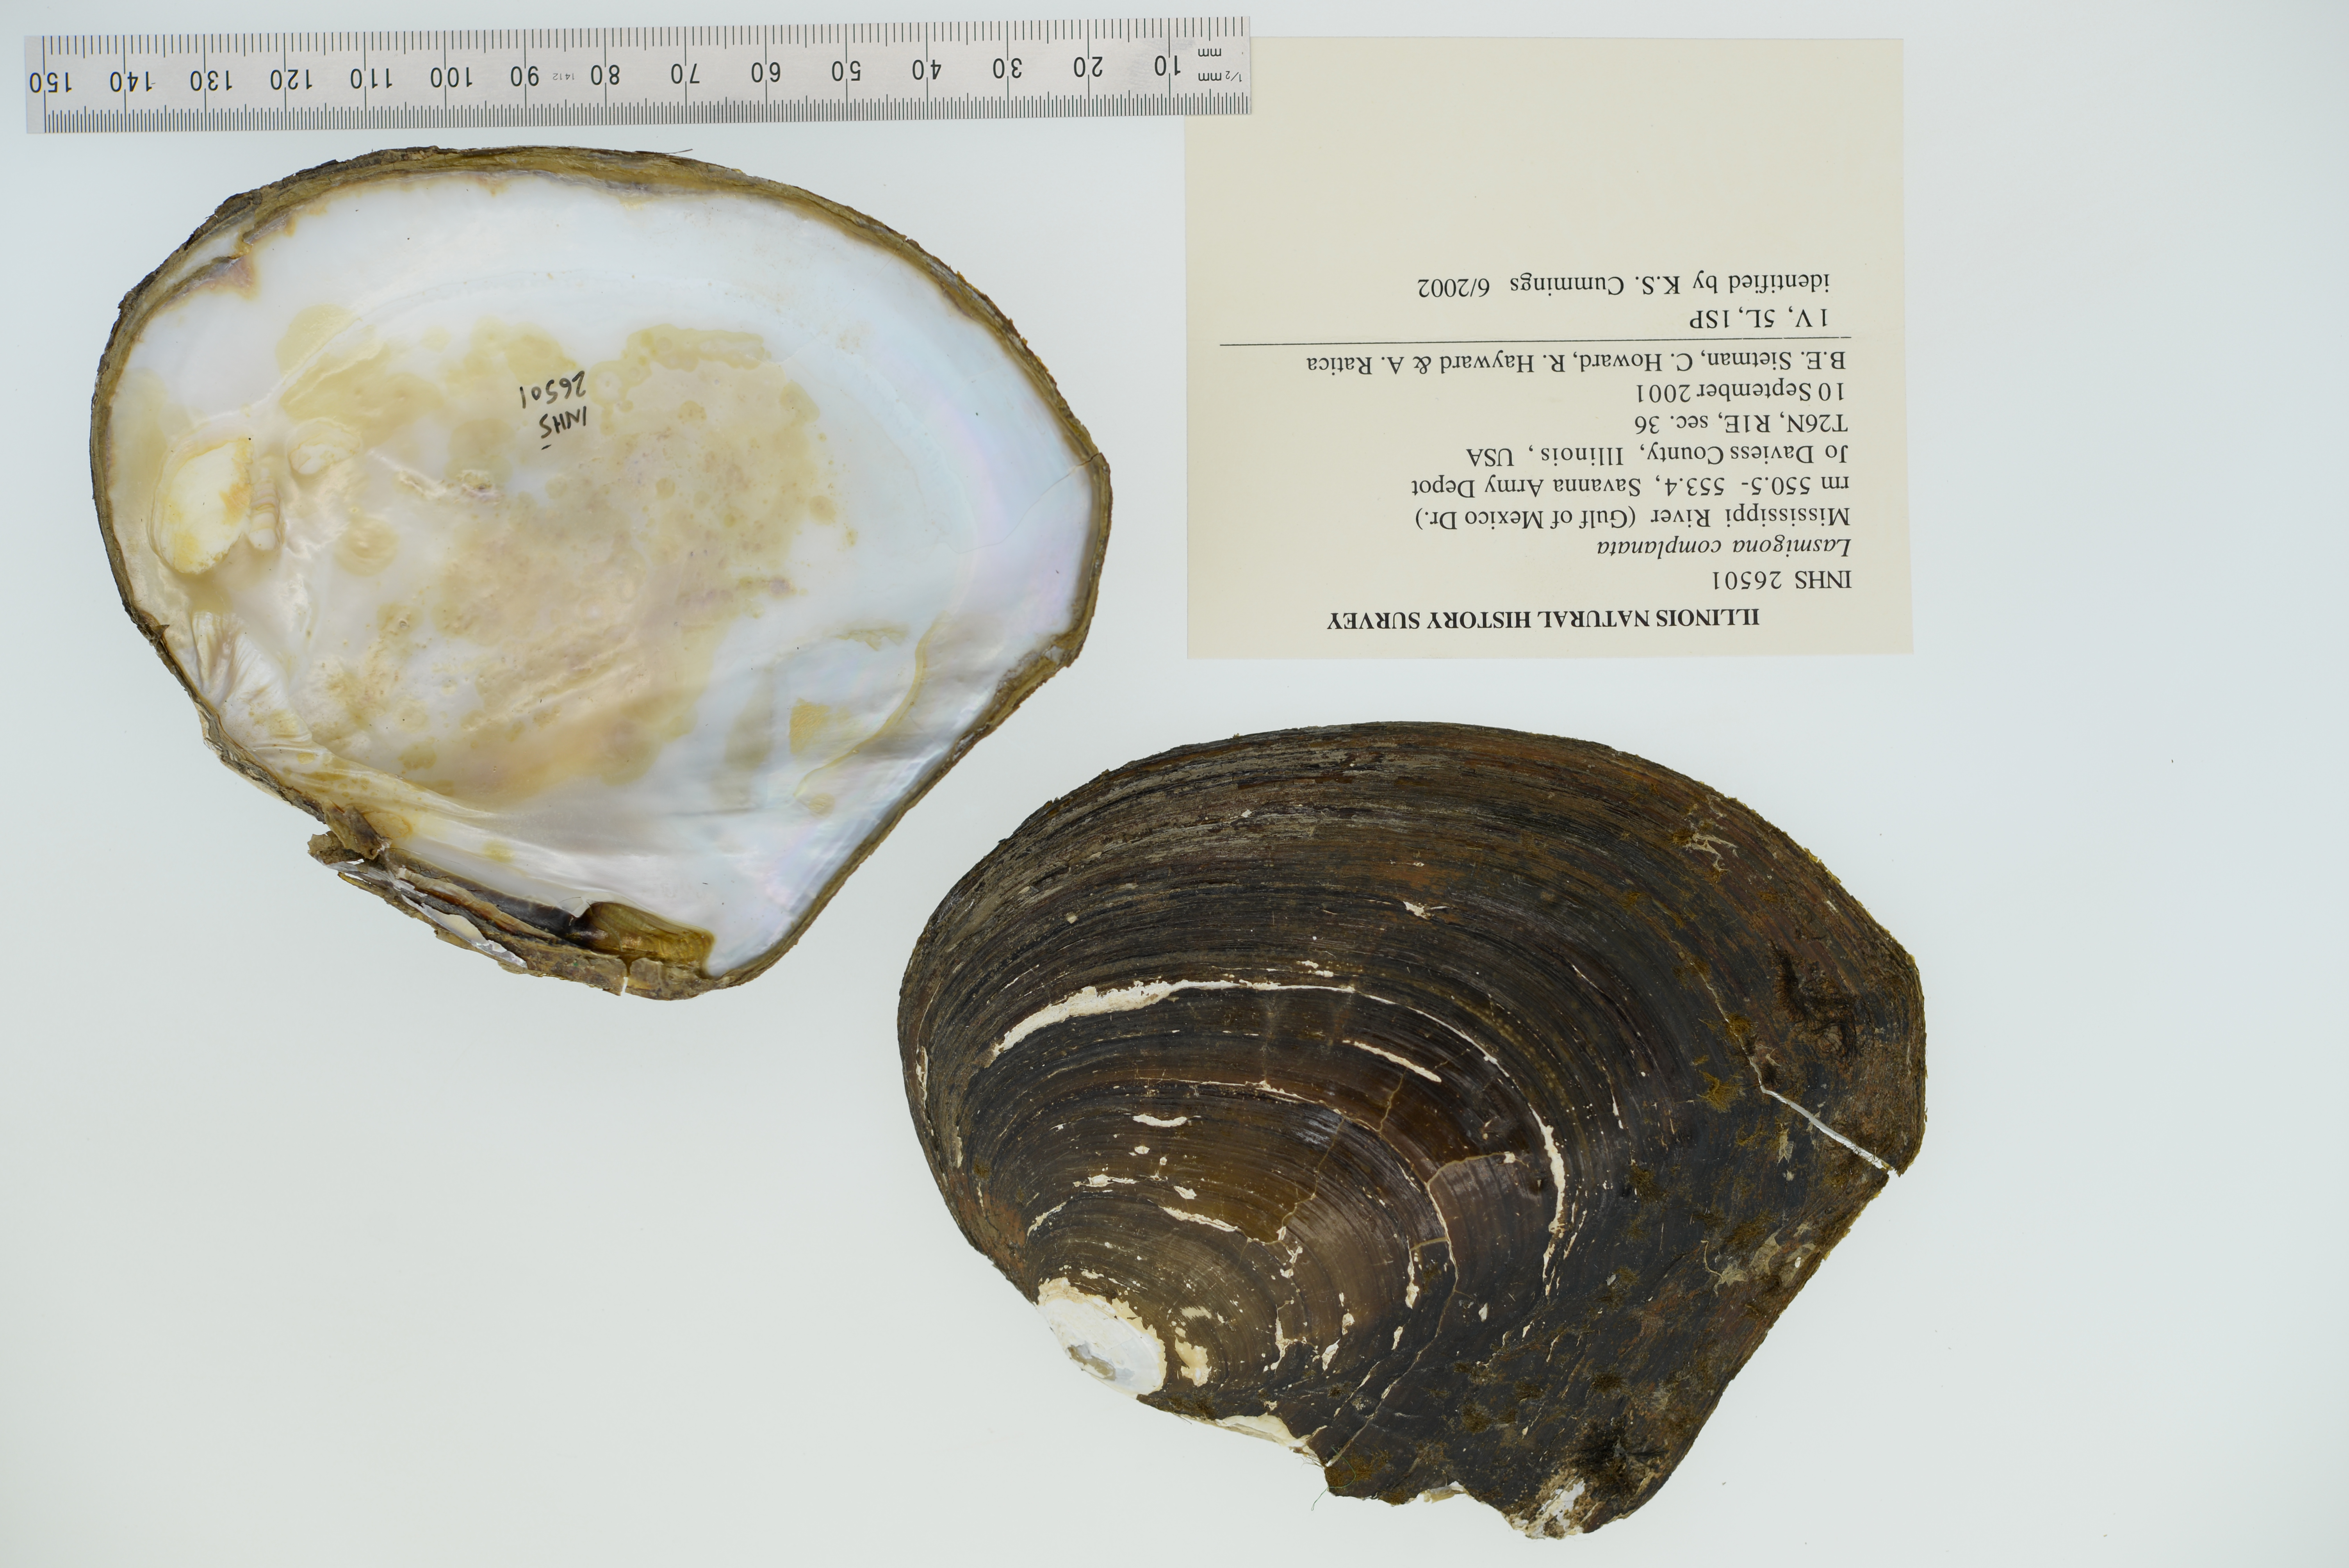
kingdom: Animalia
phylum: Mollusca
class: Bivalvia
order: Unionida
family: Unionidae
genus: Lasmigona
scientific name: Lasmigona complanata
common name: White heelsplitter
